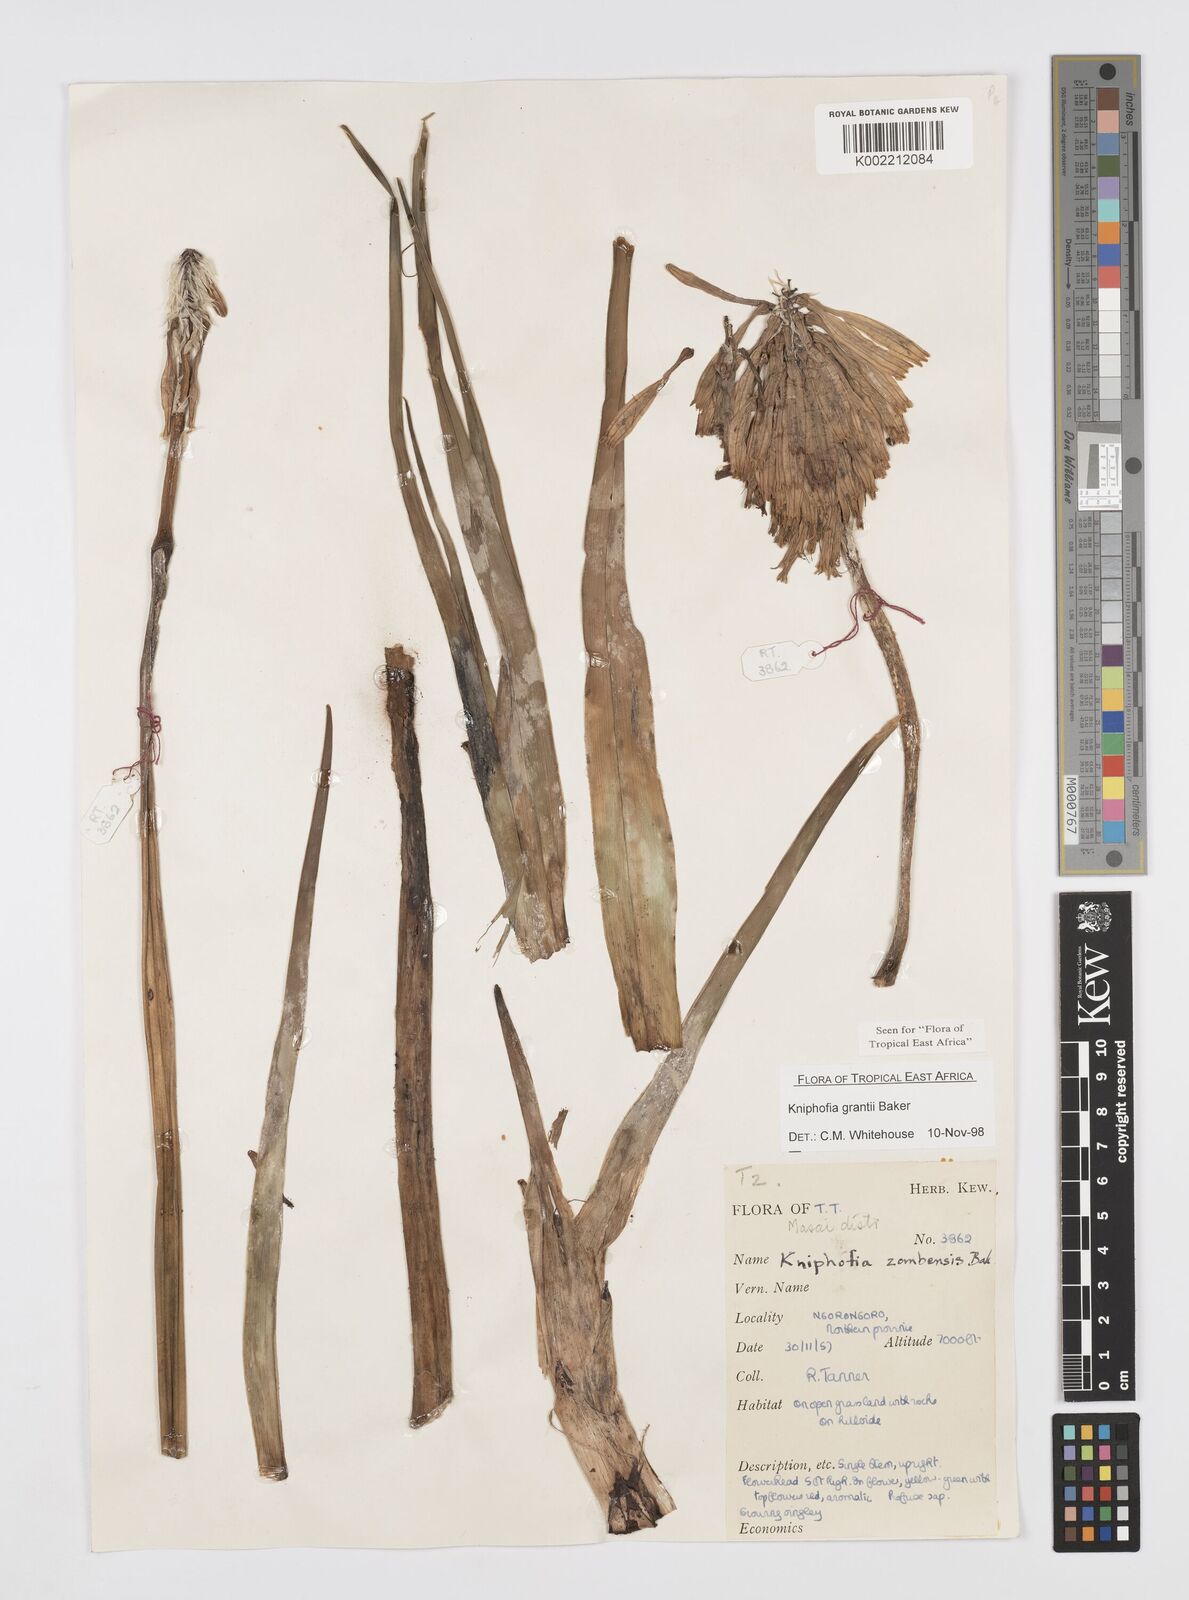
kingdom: Plantae
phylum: Tracheophyta
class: Liliopsida
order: Asparagales
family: Asphodelaceae
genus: Kniphofia
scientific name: Kniphofia grantii
